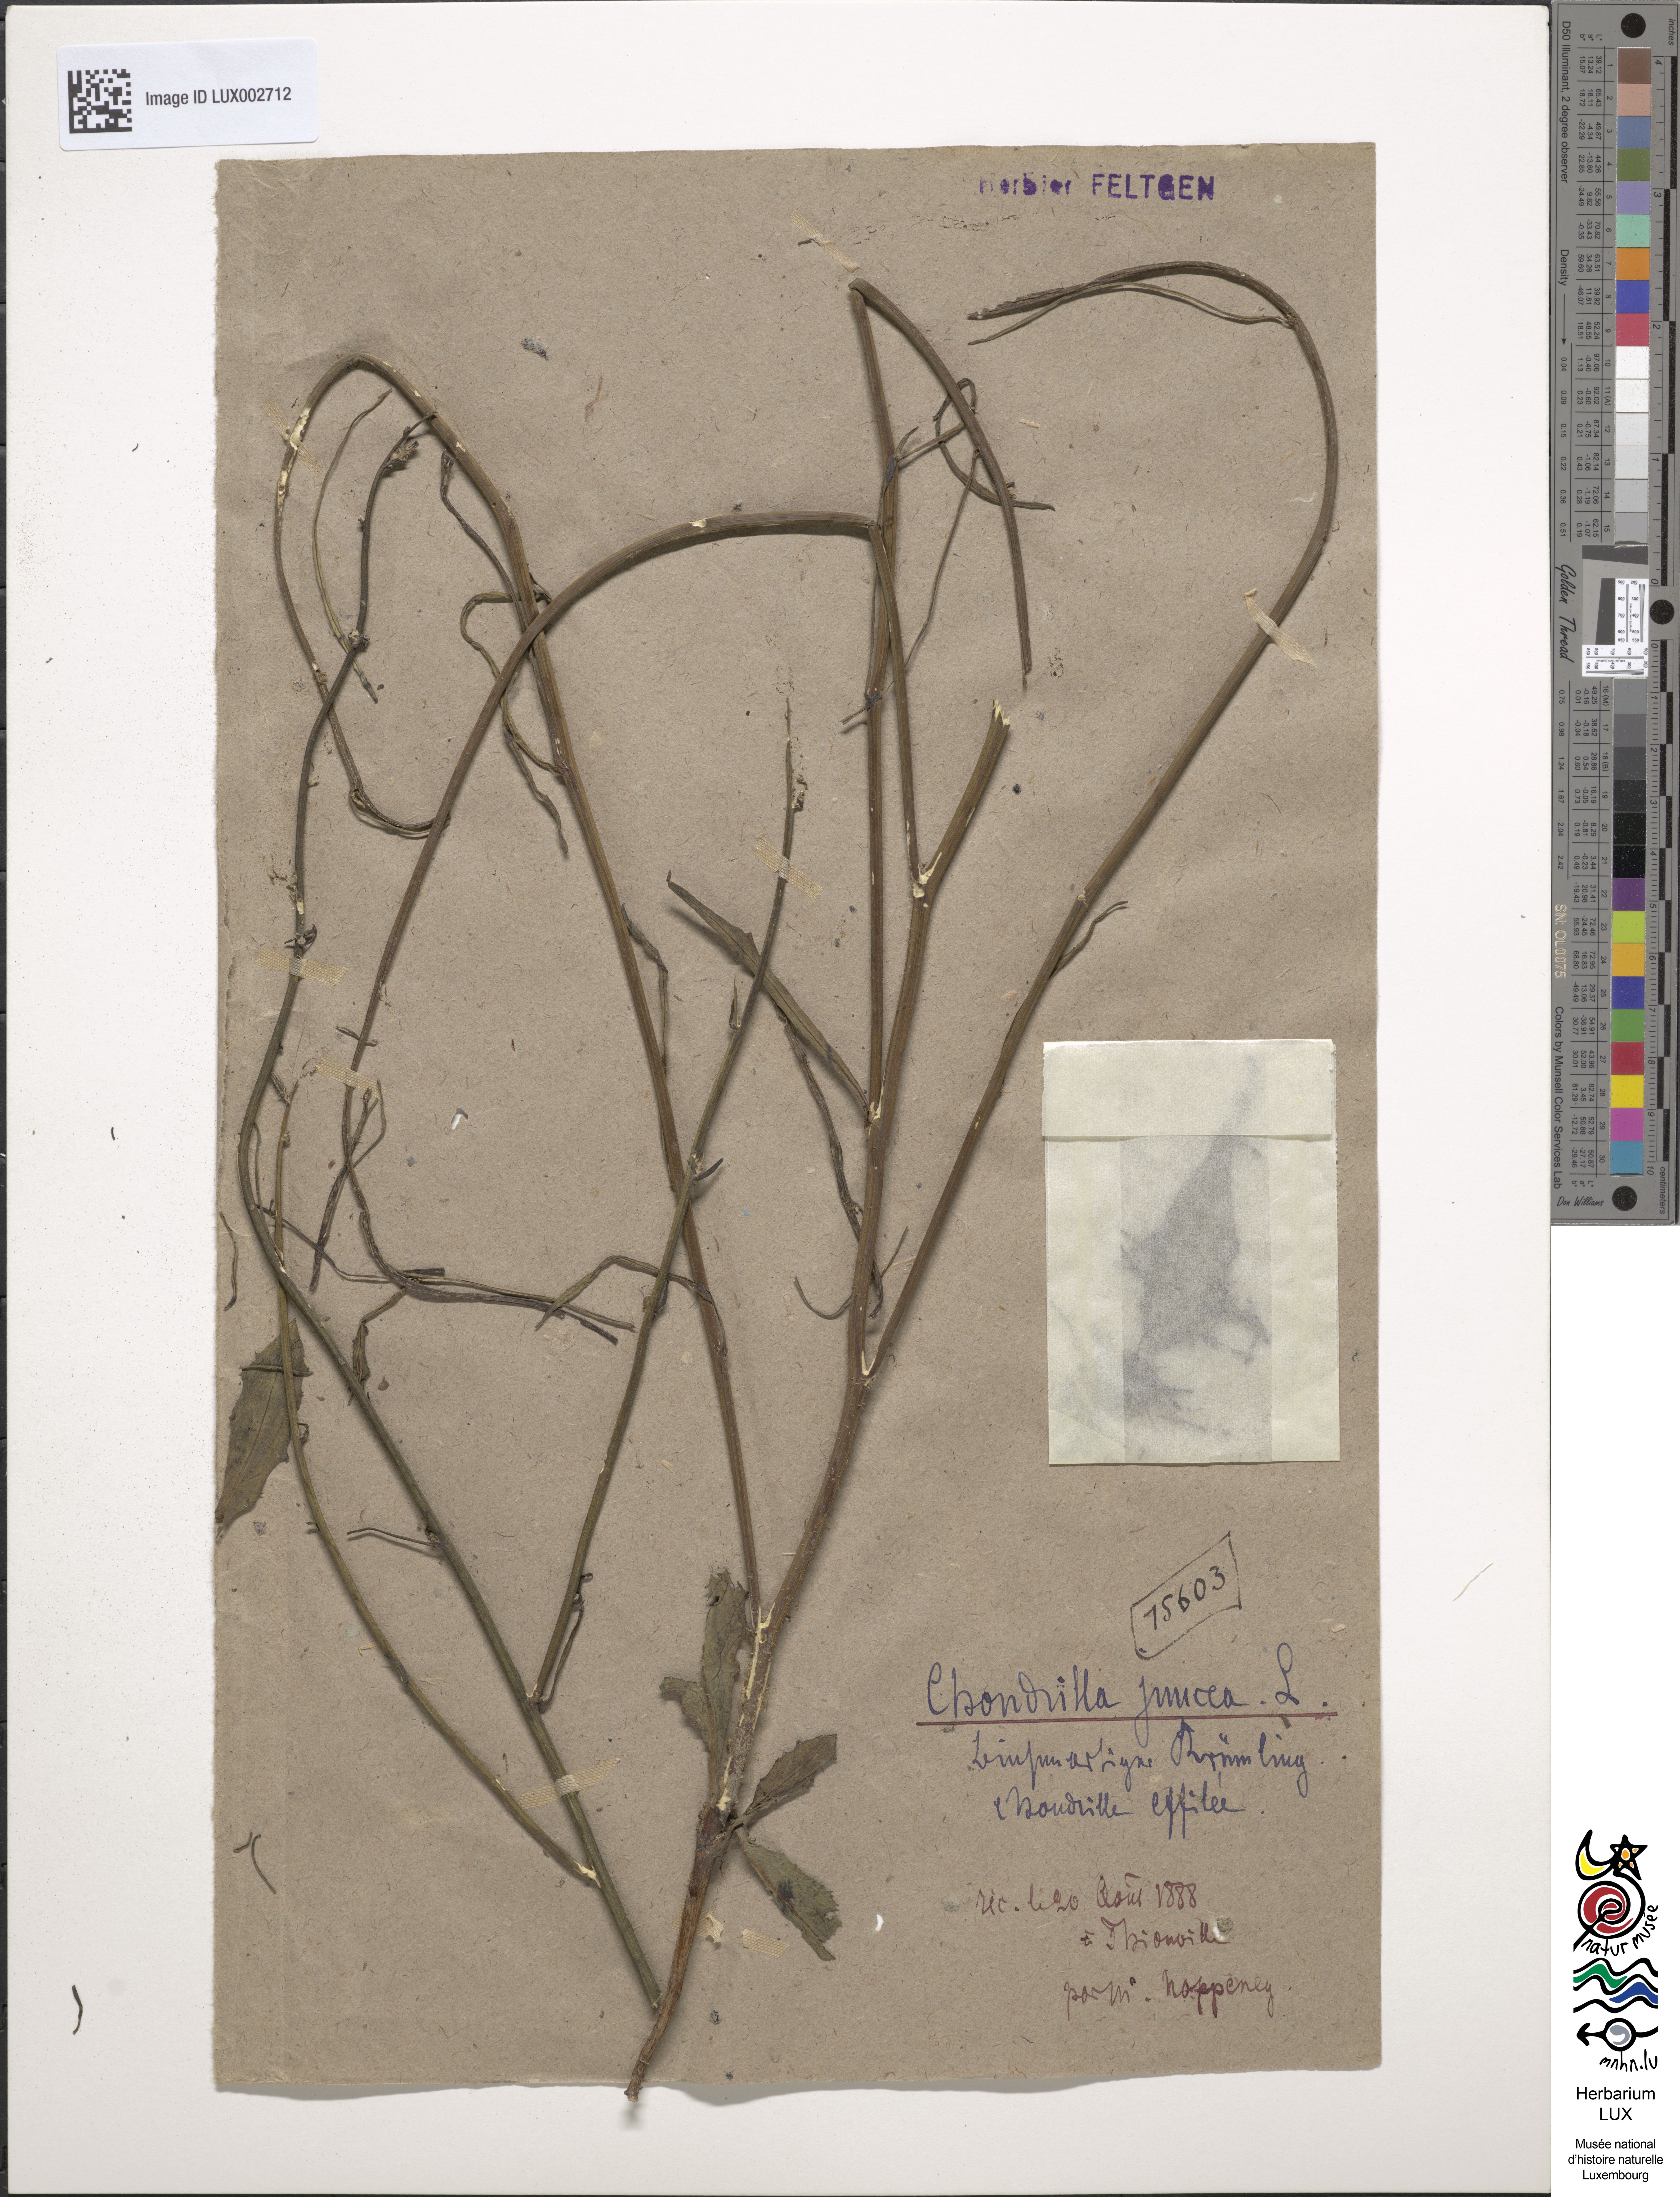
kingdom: Plantae
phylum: Tracheophyta
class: Magnoliopsida
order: Asterales
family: Asteraceae
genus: Chondrilla
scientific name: Chondrilla juncea
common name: Skeleton weed
